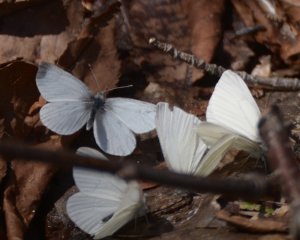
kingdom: Animalia
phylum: Arthropoda
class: Insecta
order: Lepidoptera
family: Pieridae
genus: Pieris
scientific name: Pieris virginiensis
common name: West Virginia White
